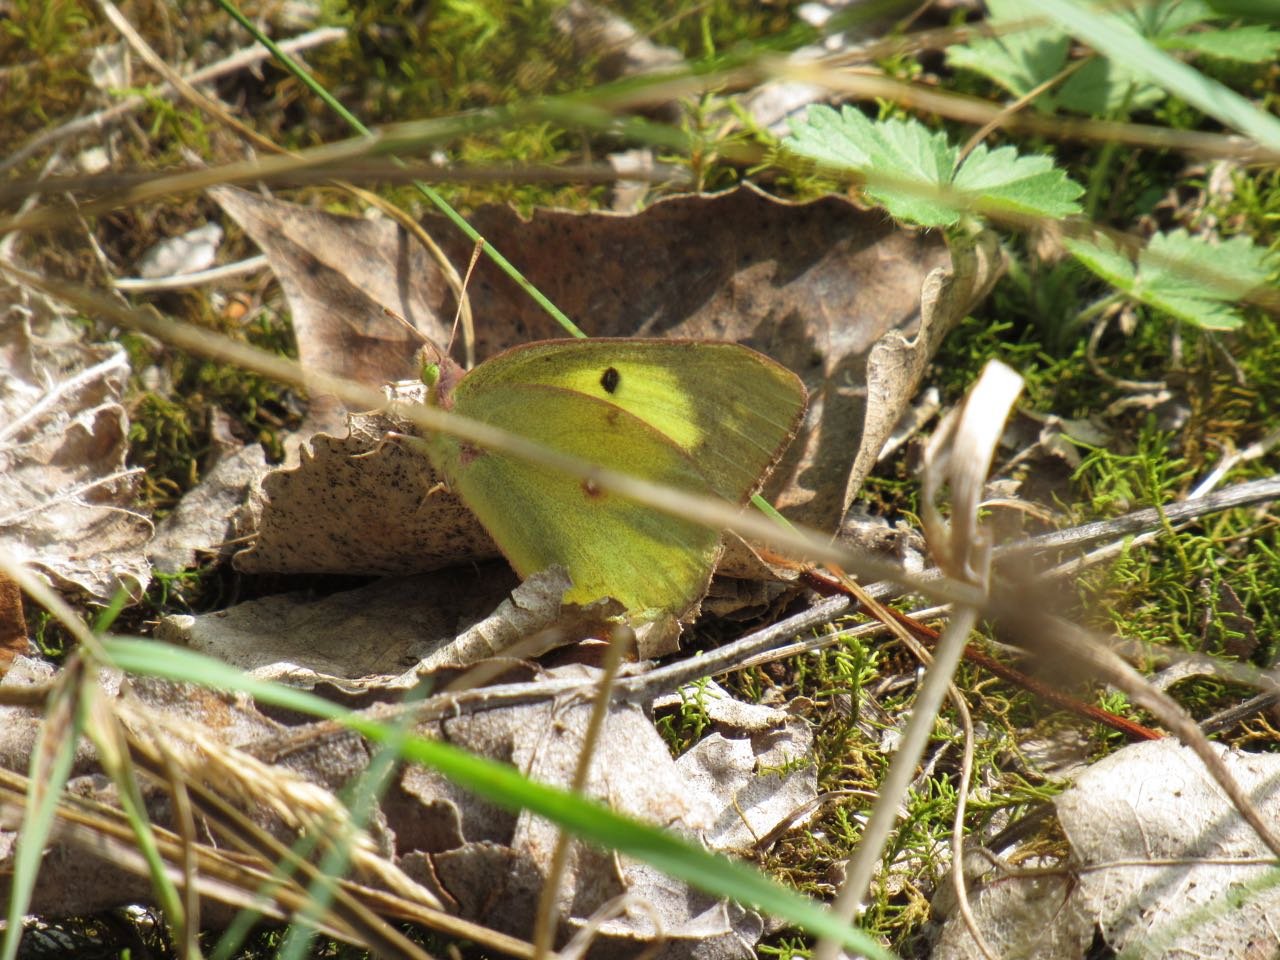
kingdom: Animalia
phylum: Arthropoda
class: Insecta
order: Lepidoptera
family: Pieridae
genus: Colias
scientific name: Colias philodice
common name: Clouded Sulphur
